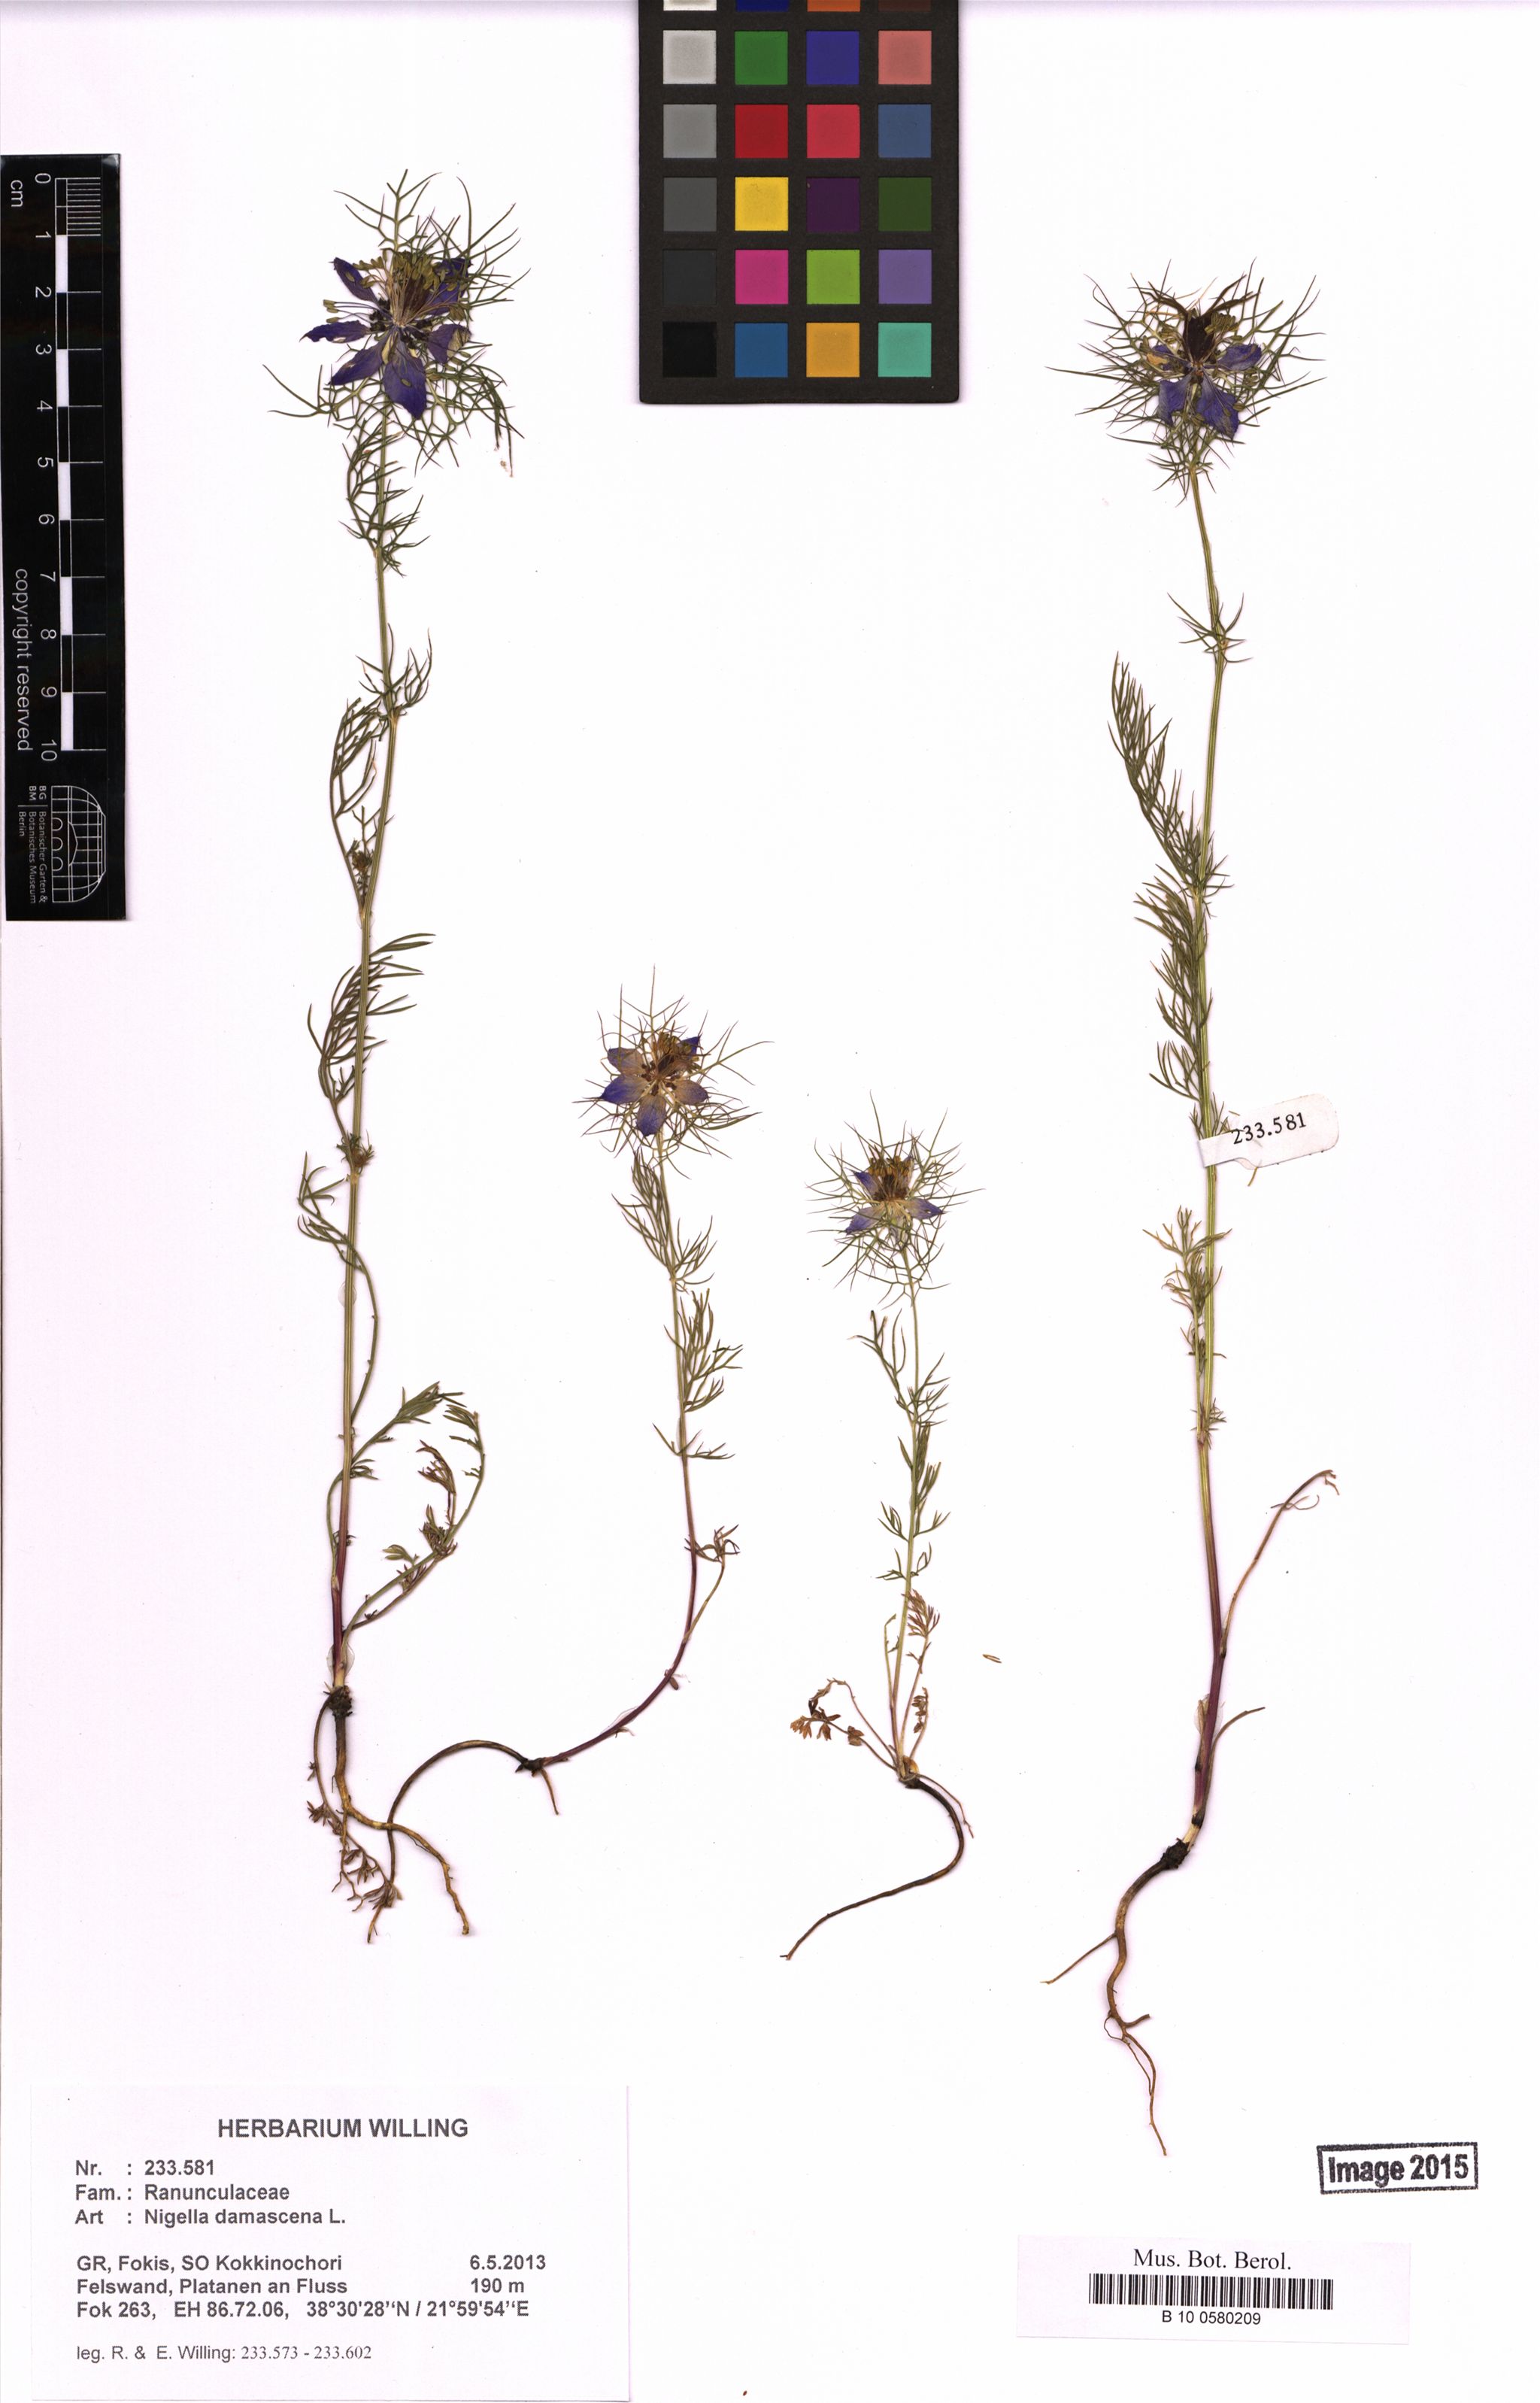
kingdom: Plantae
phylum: Tracheophyta
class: Magnoliopsida
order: Ranunculales
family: Ranunculaceae
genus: Nigella
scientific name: Nigella damascena
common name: Love-in-a-mist
